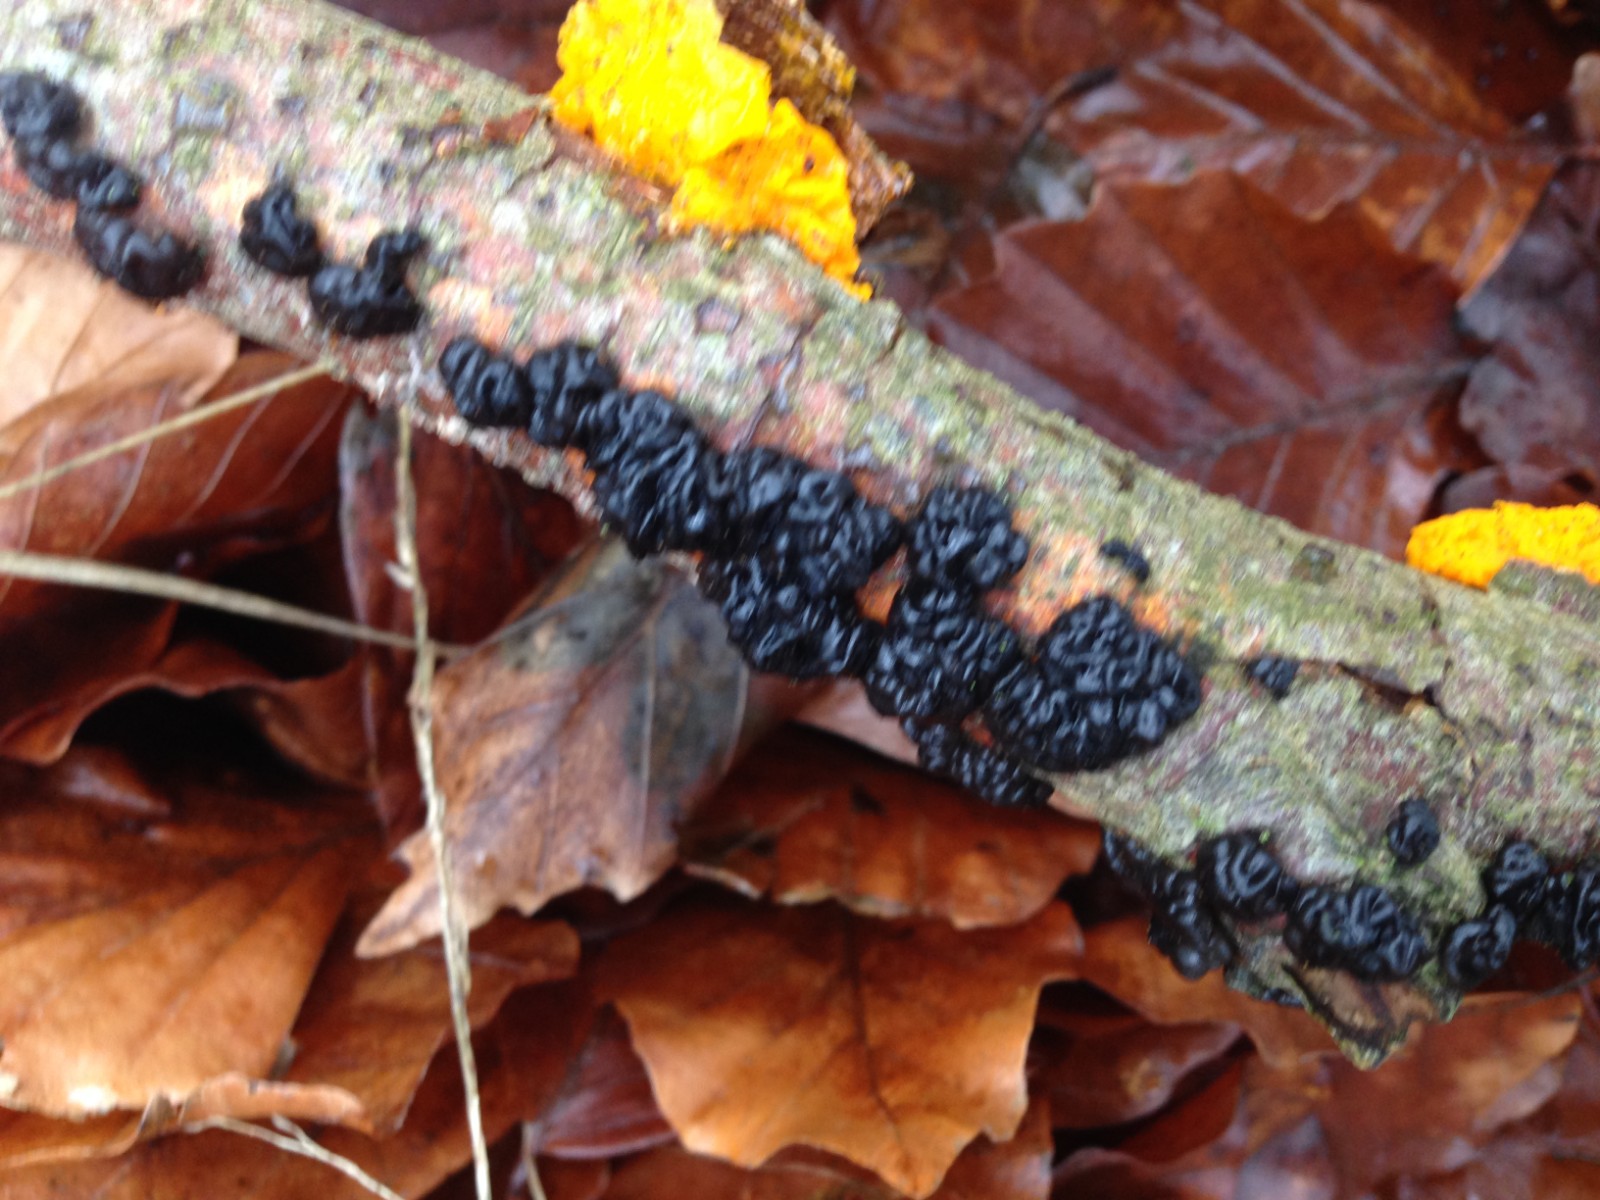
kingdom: Fungi
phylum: Basidiomycota
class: Agaricomycetes
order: Auriculariales
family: Auriculariaceae
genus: Exidia
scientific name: Exidia nigricans
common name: almindelig bævretop
